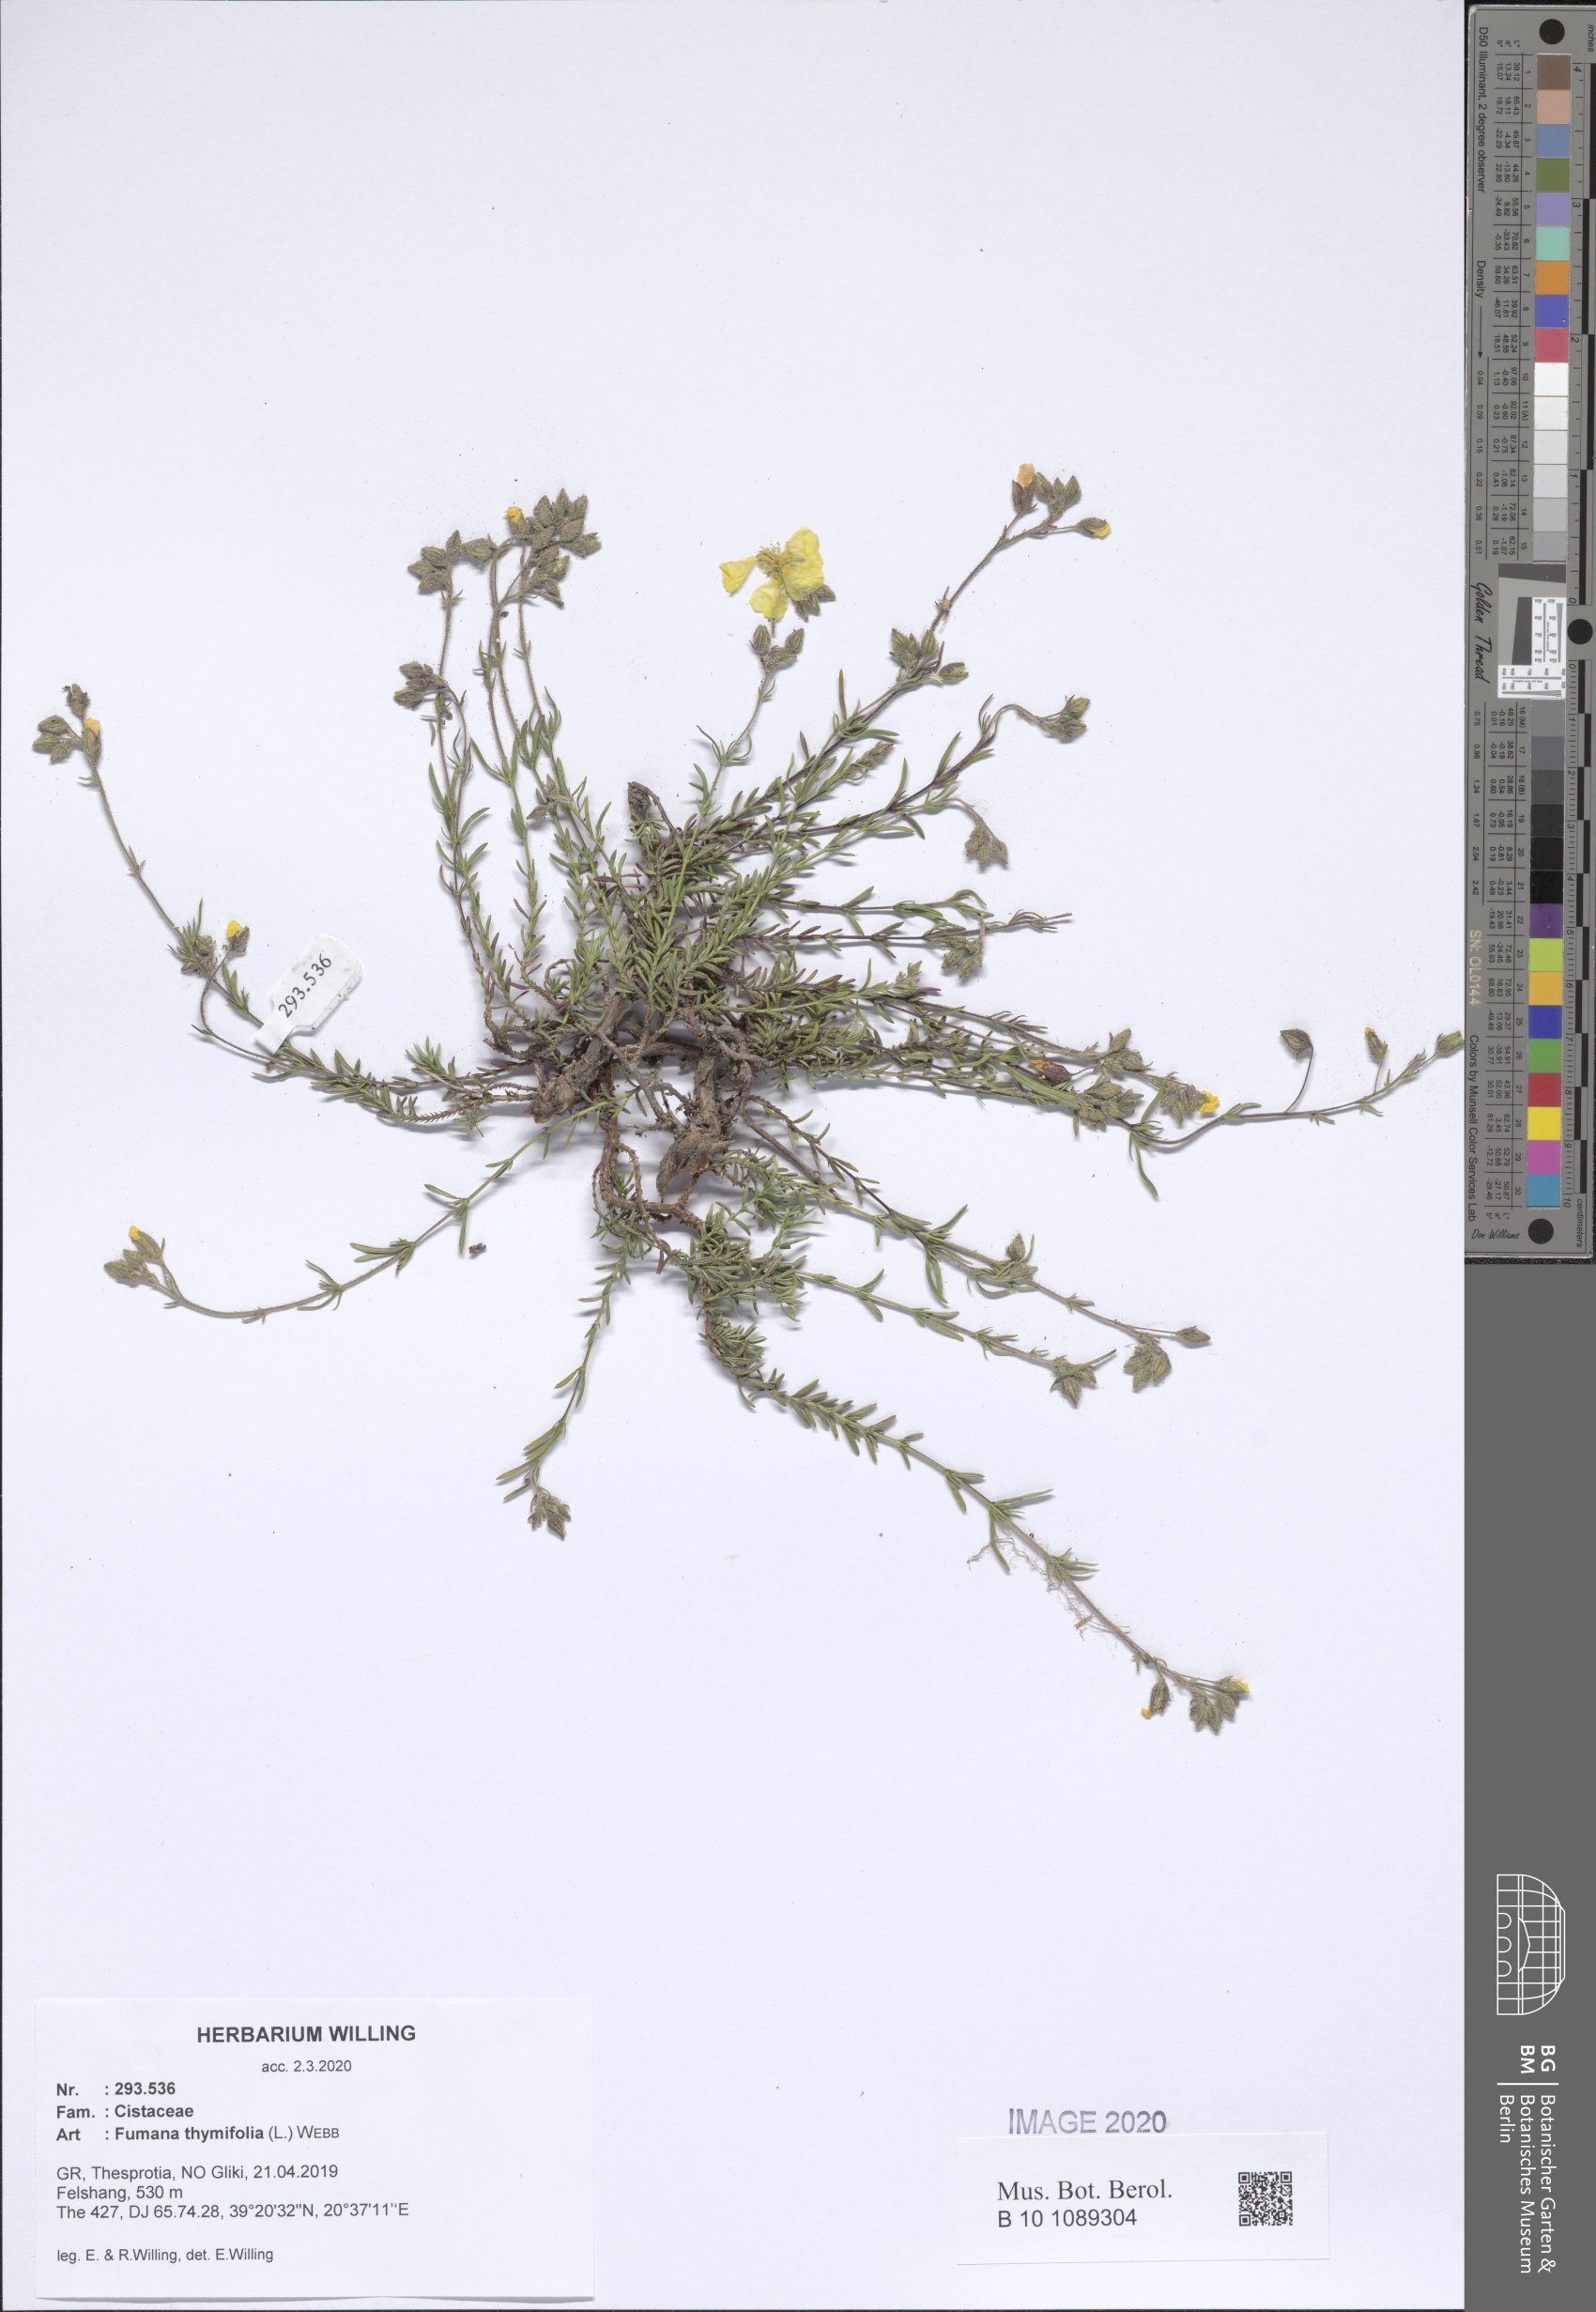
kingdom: Plantae
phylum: Tracheophyta
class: Magnoliopsida
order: Malvales
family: Cistaceae
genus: Fumana
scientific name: Fumana thymifolia
